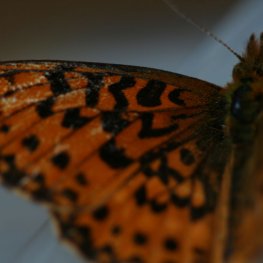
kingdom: Animalia
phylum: Arthropoda
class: Insecta
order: Lepidoptera
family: Nymphalidae
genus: Boloria
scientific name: Boloria selene
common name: Silver-bordered Fritillary
